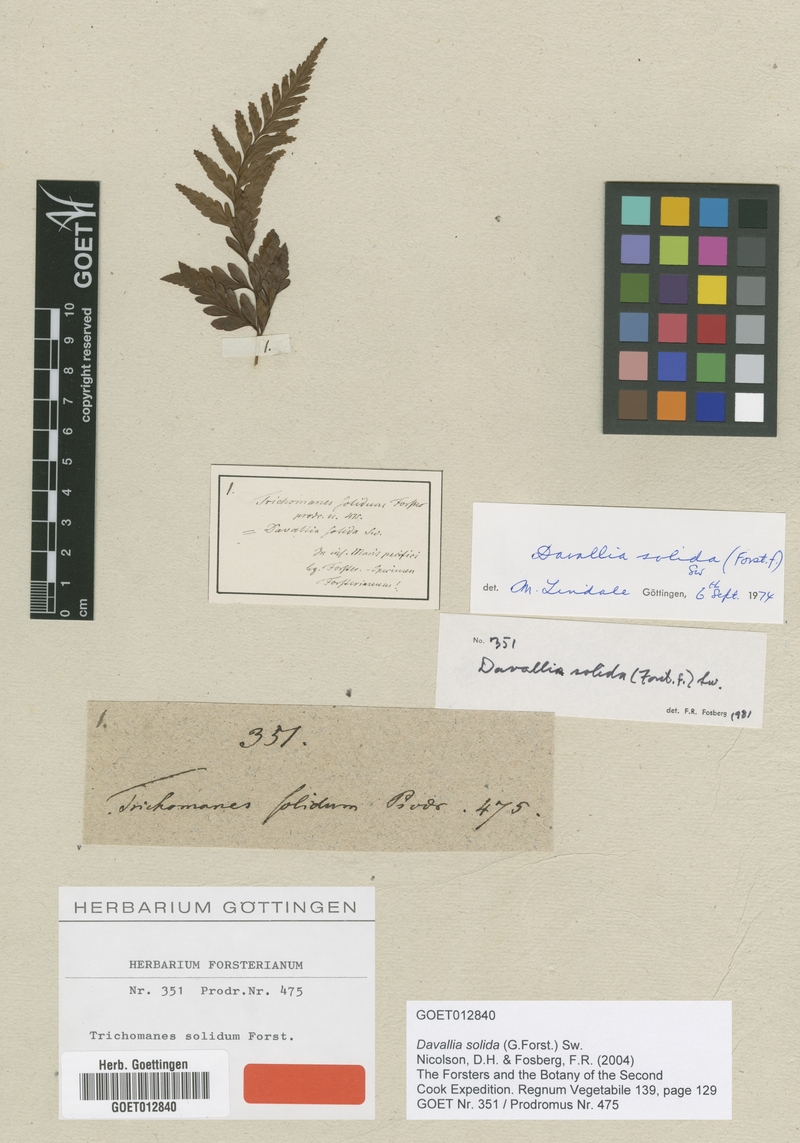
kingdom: Plantae
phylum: Tracheophyta
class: Polypodiopsida
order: Polypodiales
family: Davalliaceae
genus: Davallia
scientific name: Davallia solida
